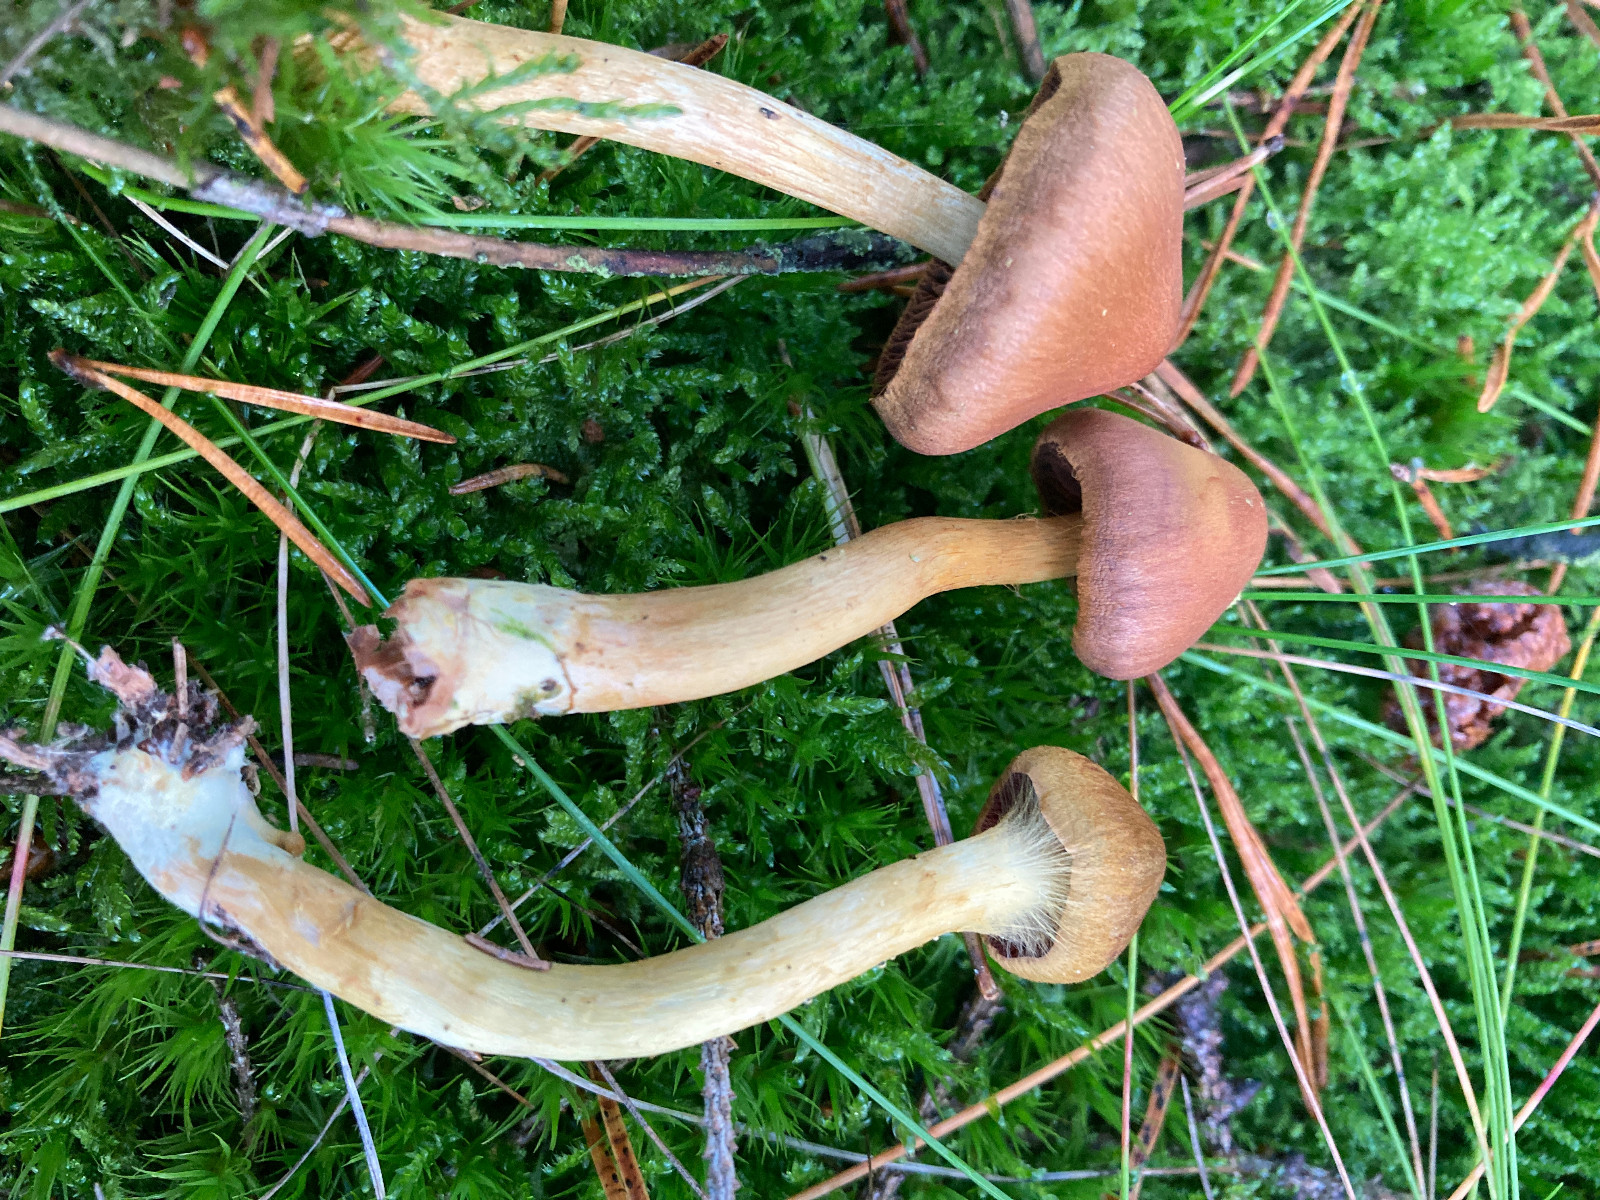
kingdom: Fungi
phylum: Basidiomycota
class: Agaricomycetes
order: Agaricales
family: Cortinariaceae
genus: Cortinarius
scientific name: Cortinarius
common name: cinnoberbladet slørhat
